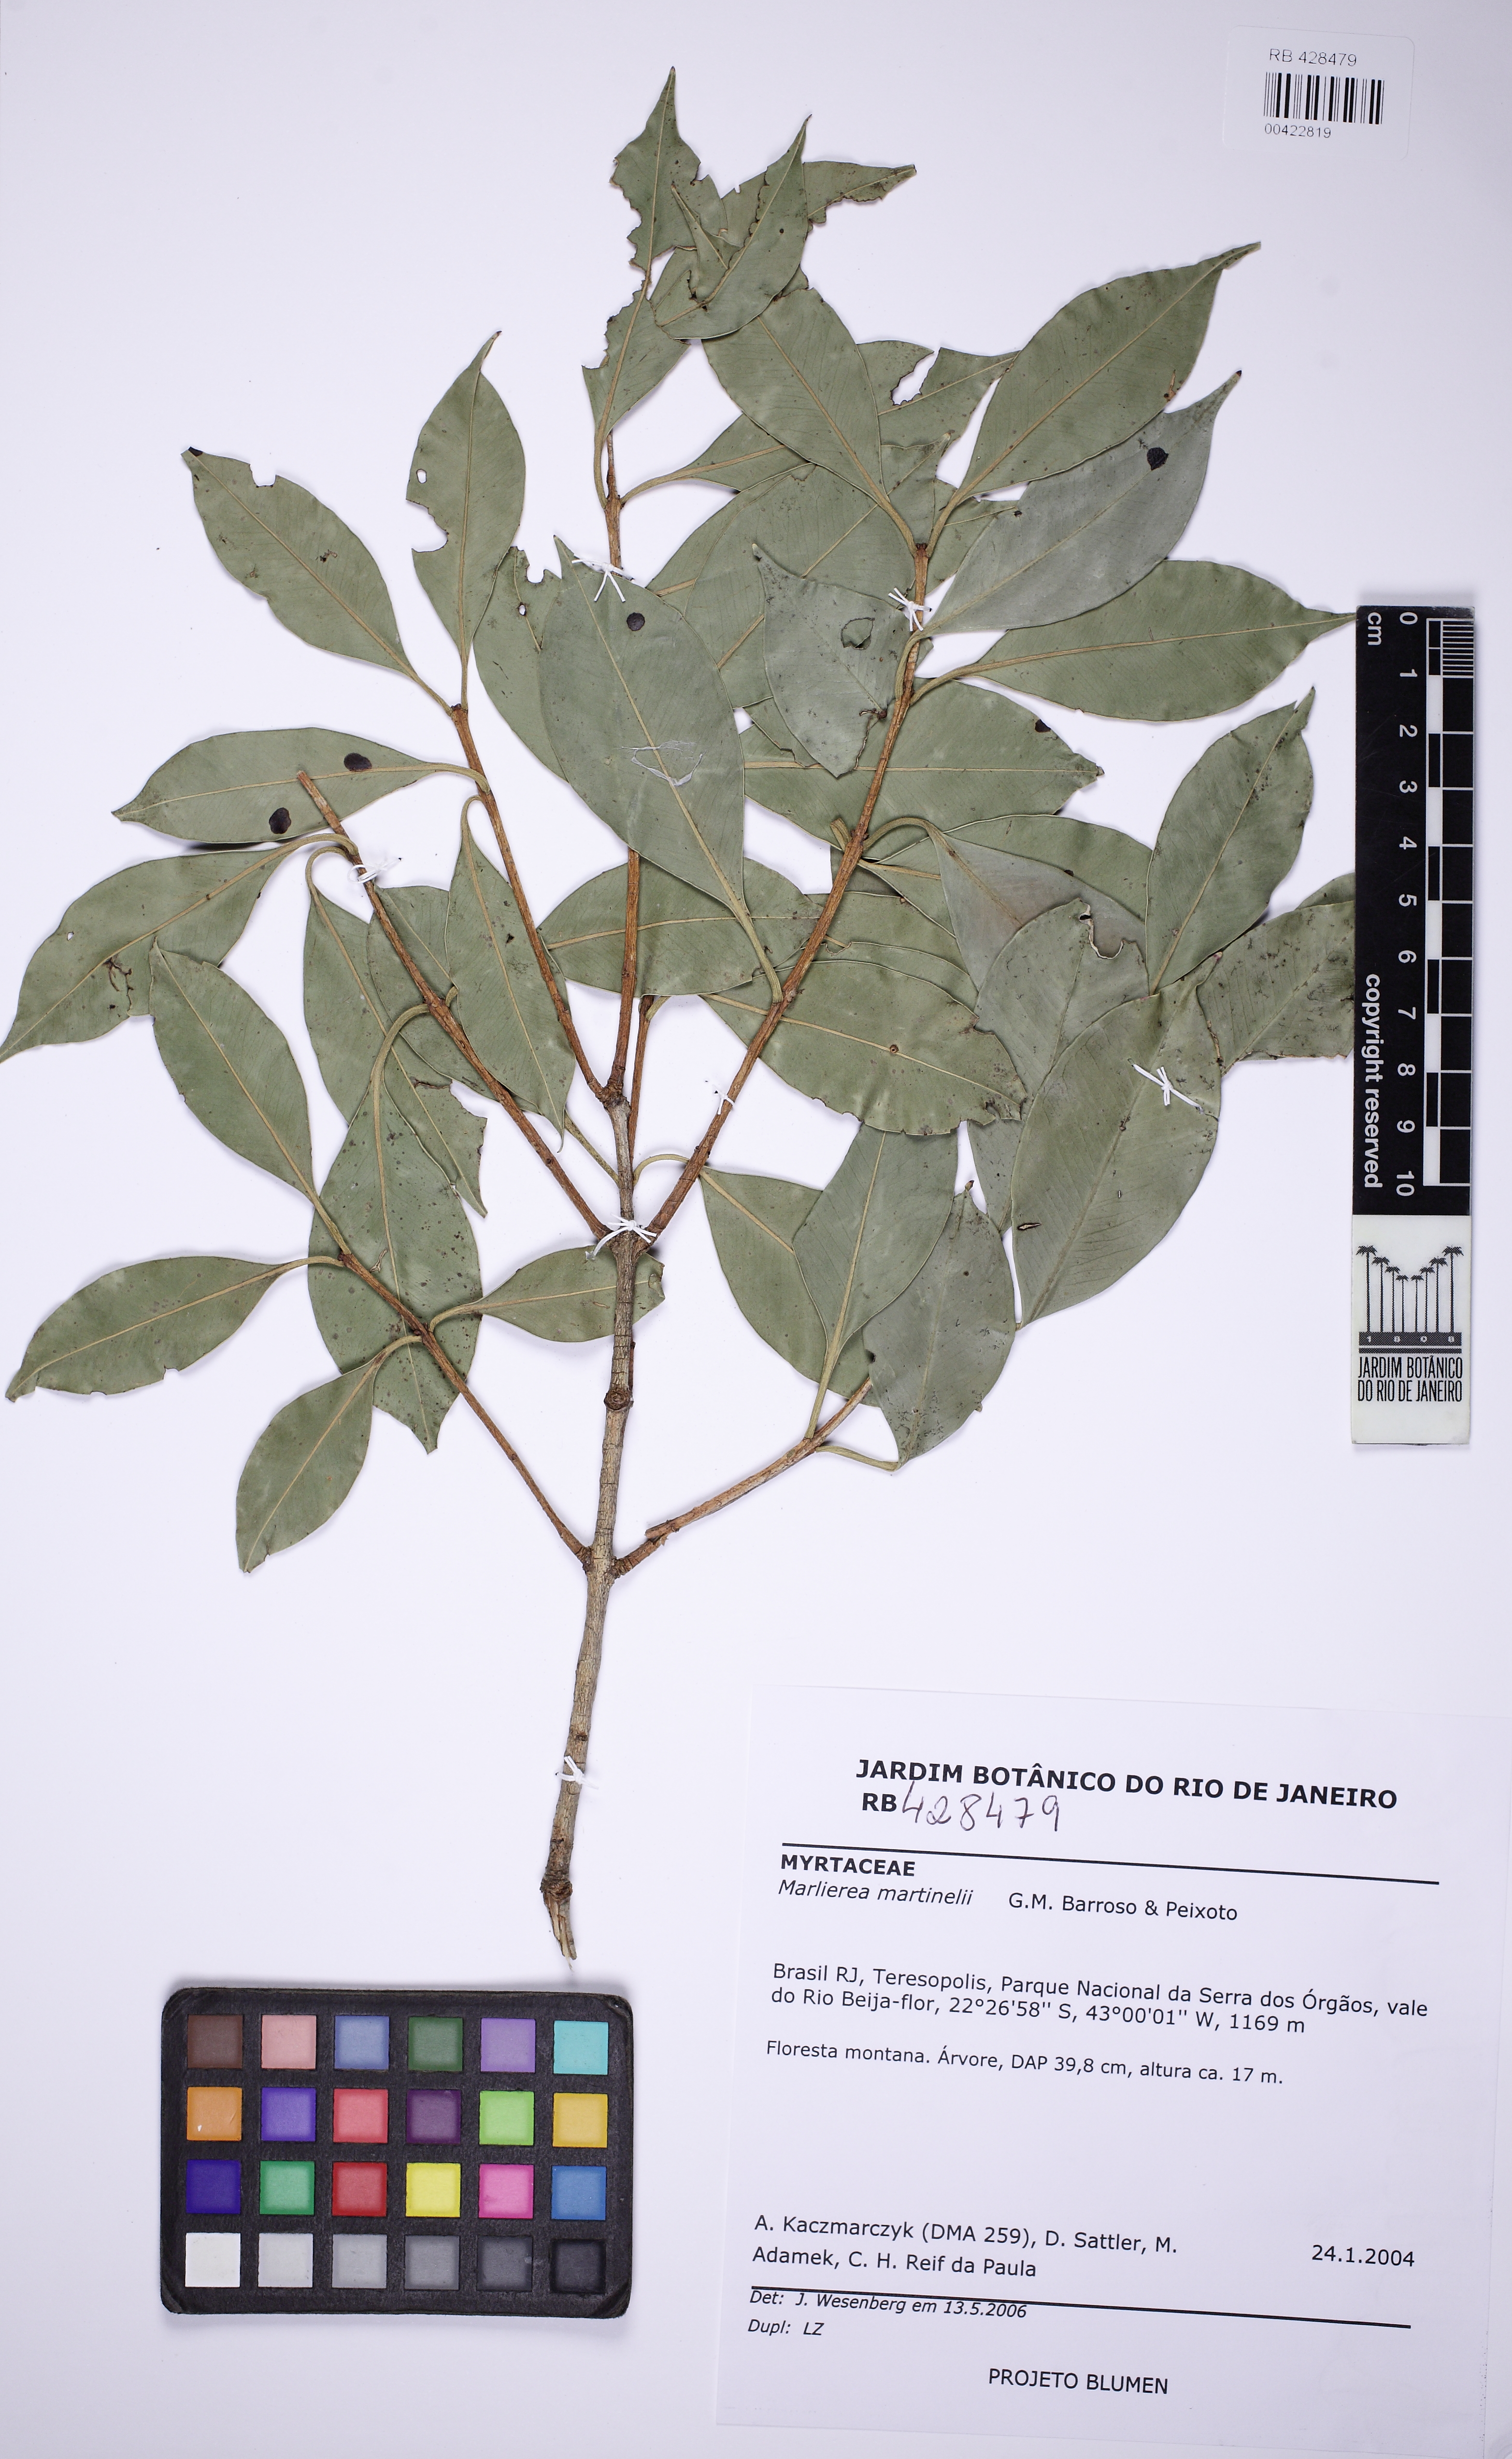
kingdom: Plantae
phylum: Tracheophyta
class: Magnoliopsida
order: Myrtales
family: Myrtaceae
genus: Siphoneugena
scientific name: Siphoneugena martinellii
